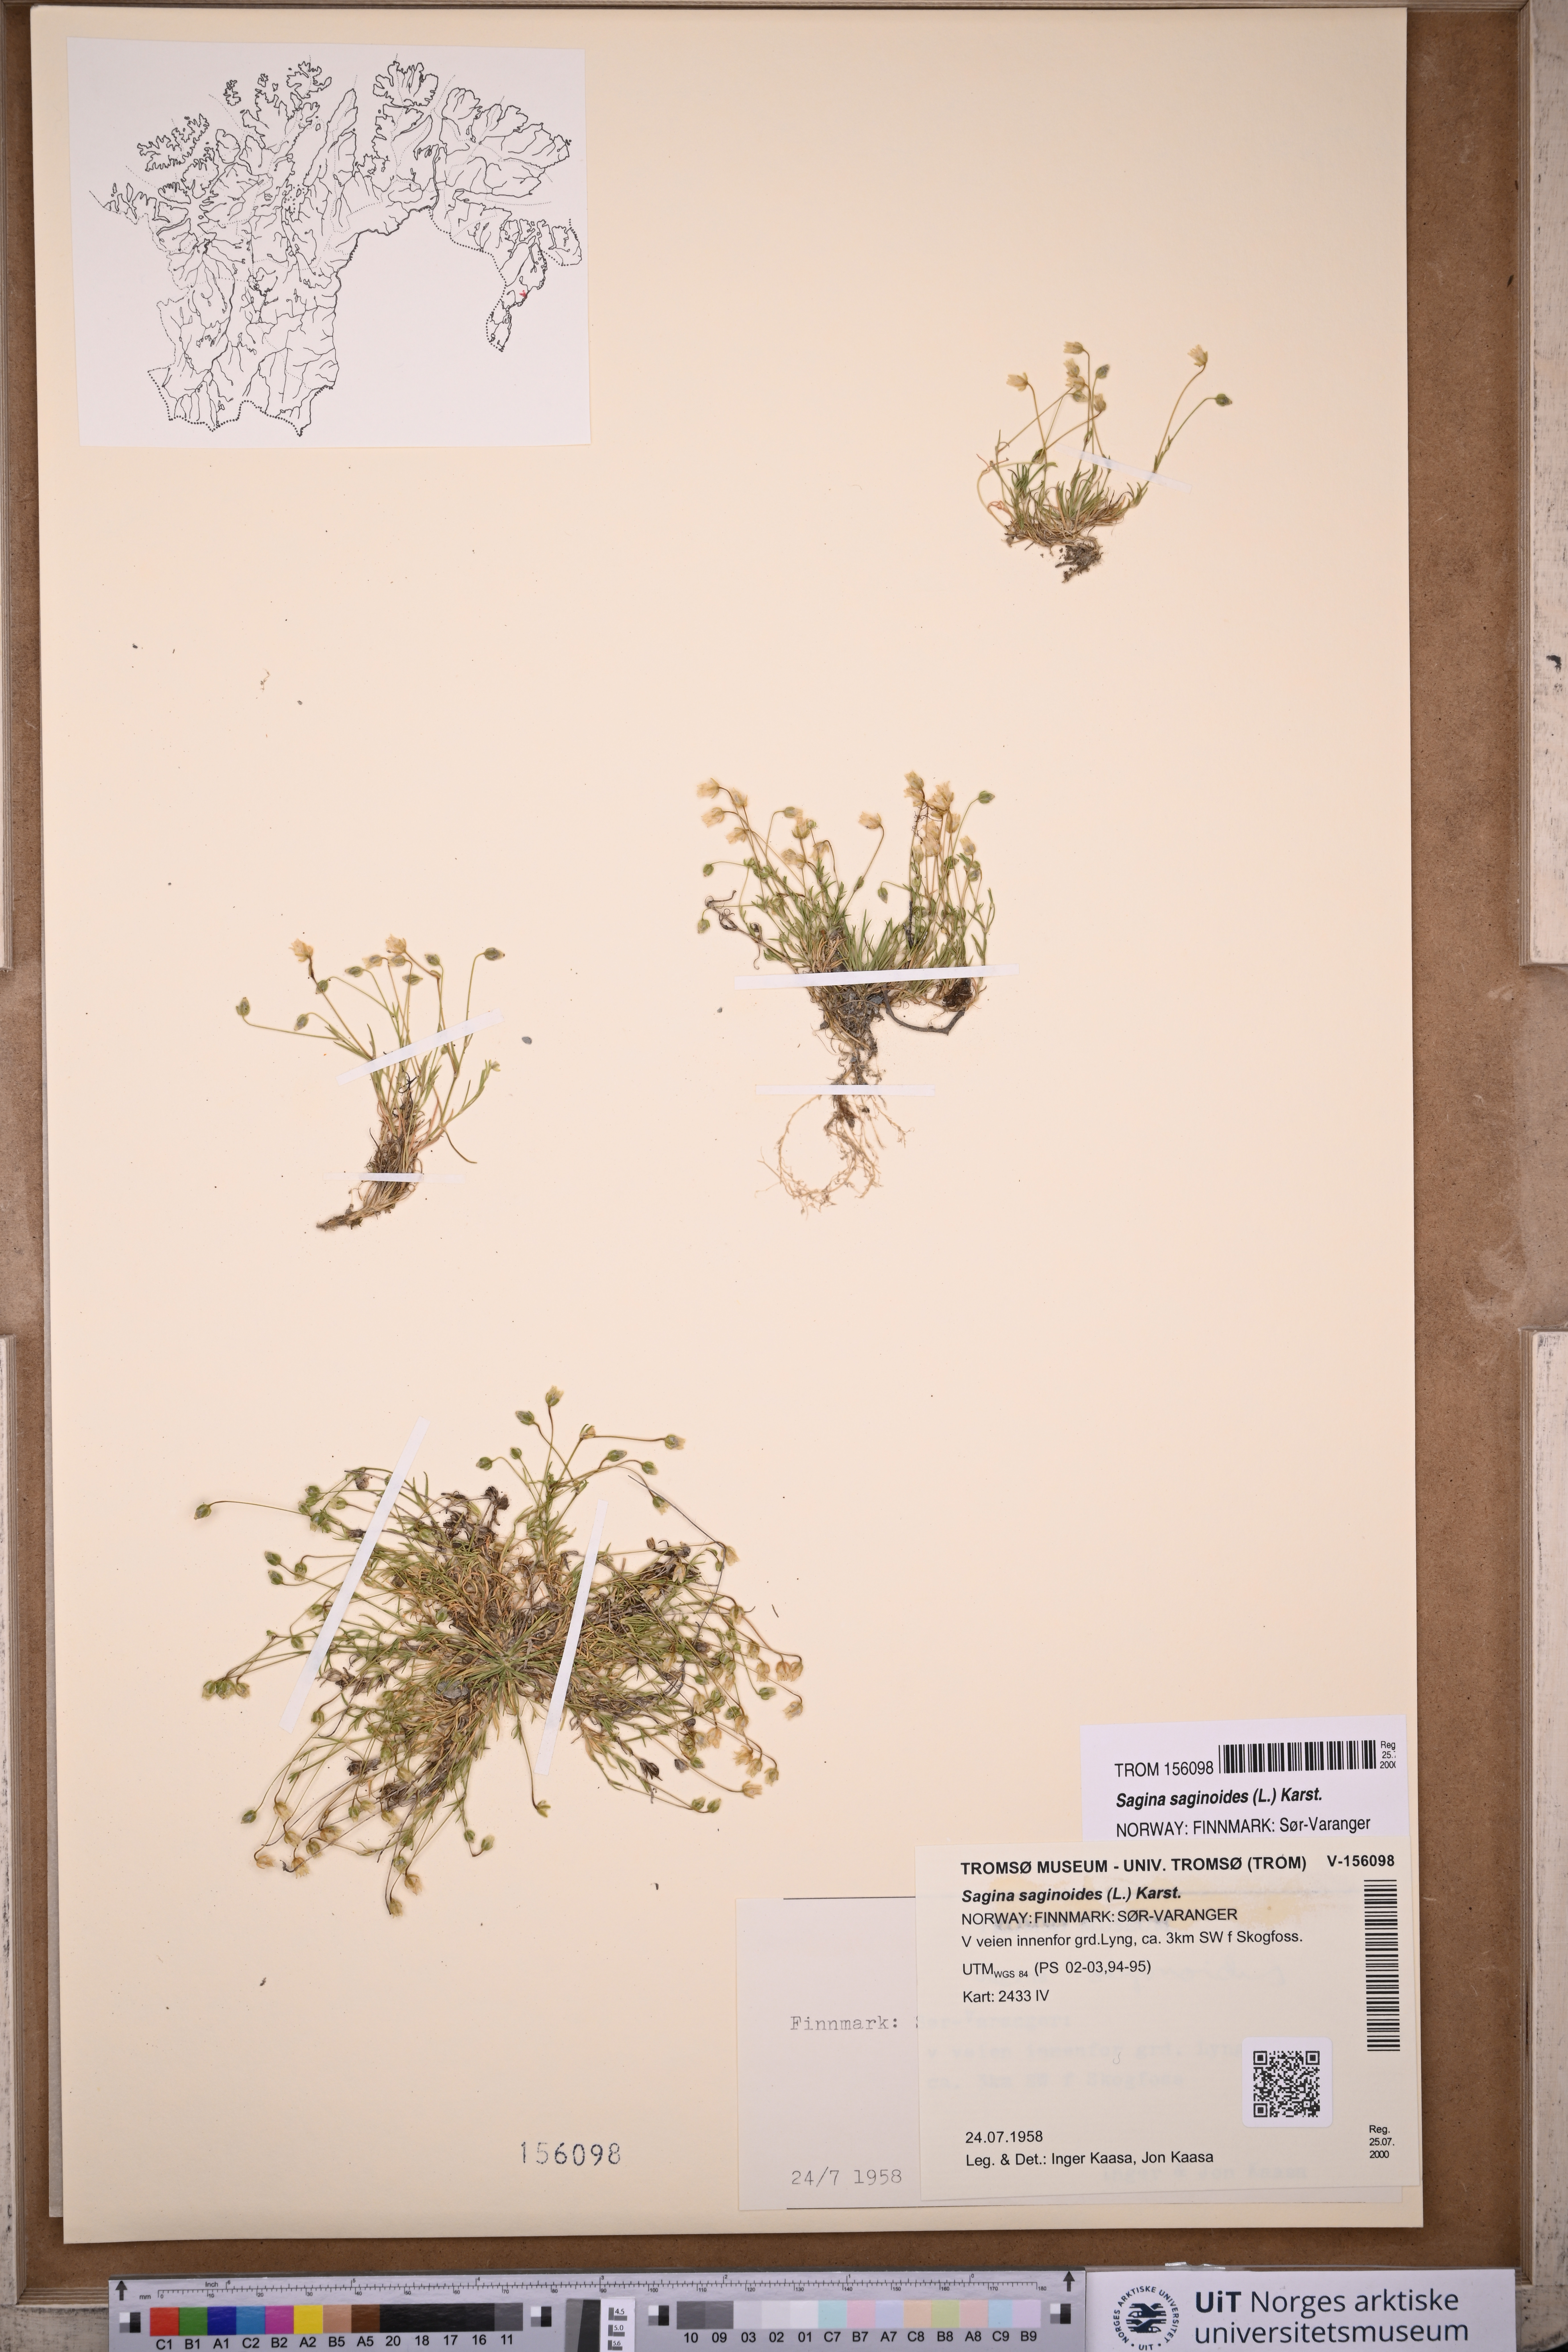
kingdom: Plantae
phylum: Tracheophyta
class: Magnoliopsida
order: Caryophyllales
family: Caryophyllaceae
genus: Sagina
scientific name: Sagina saginoides
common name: Alpine pearlwort
